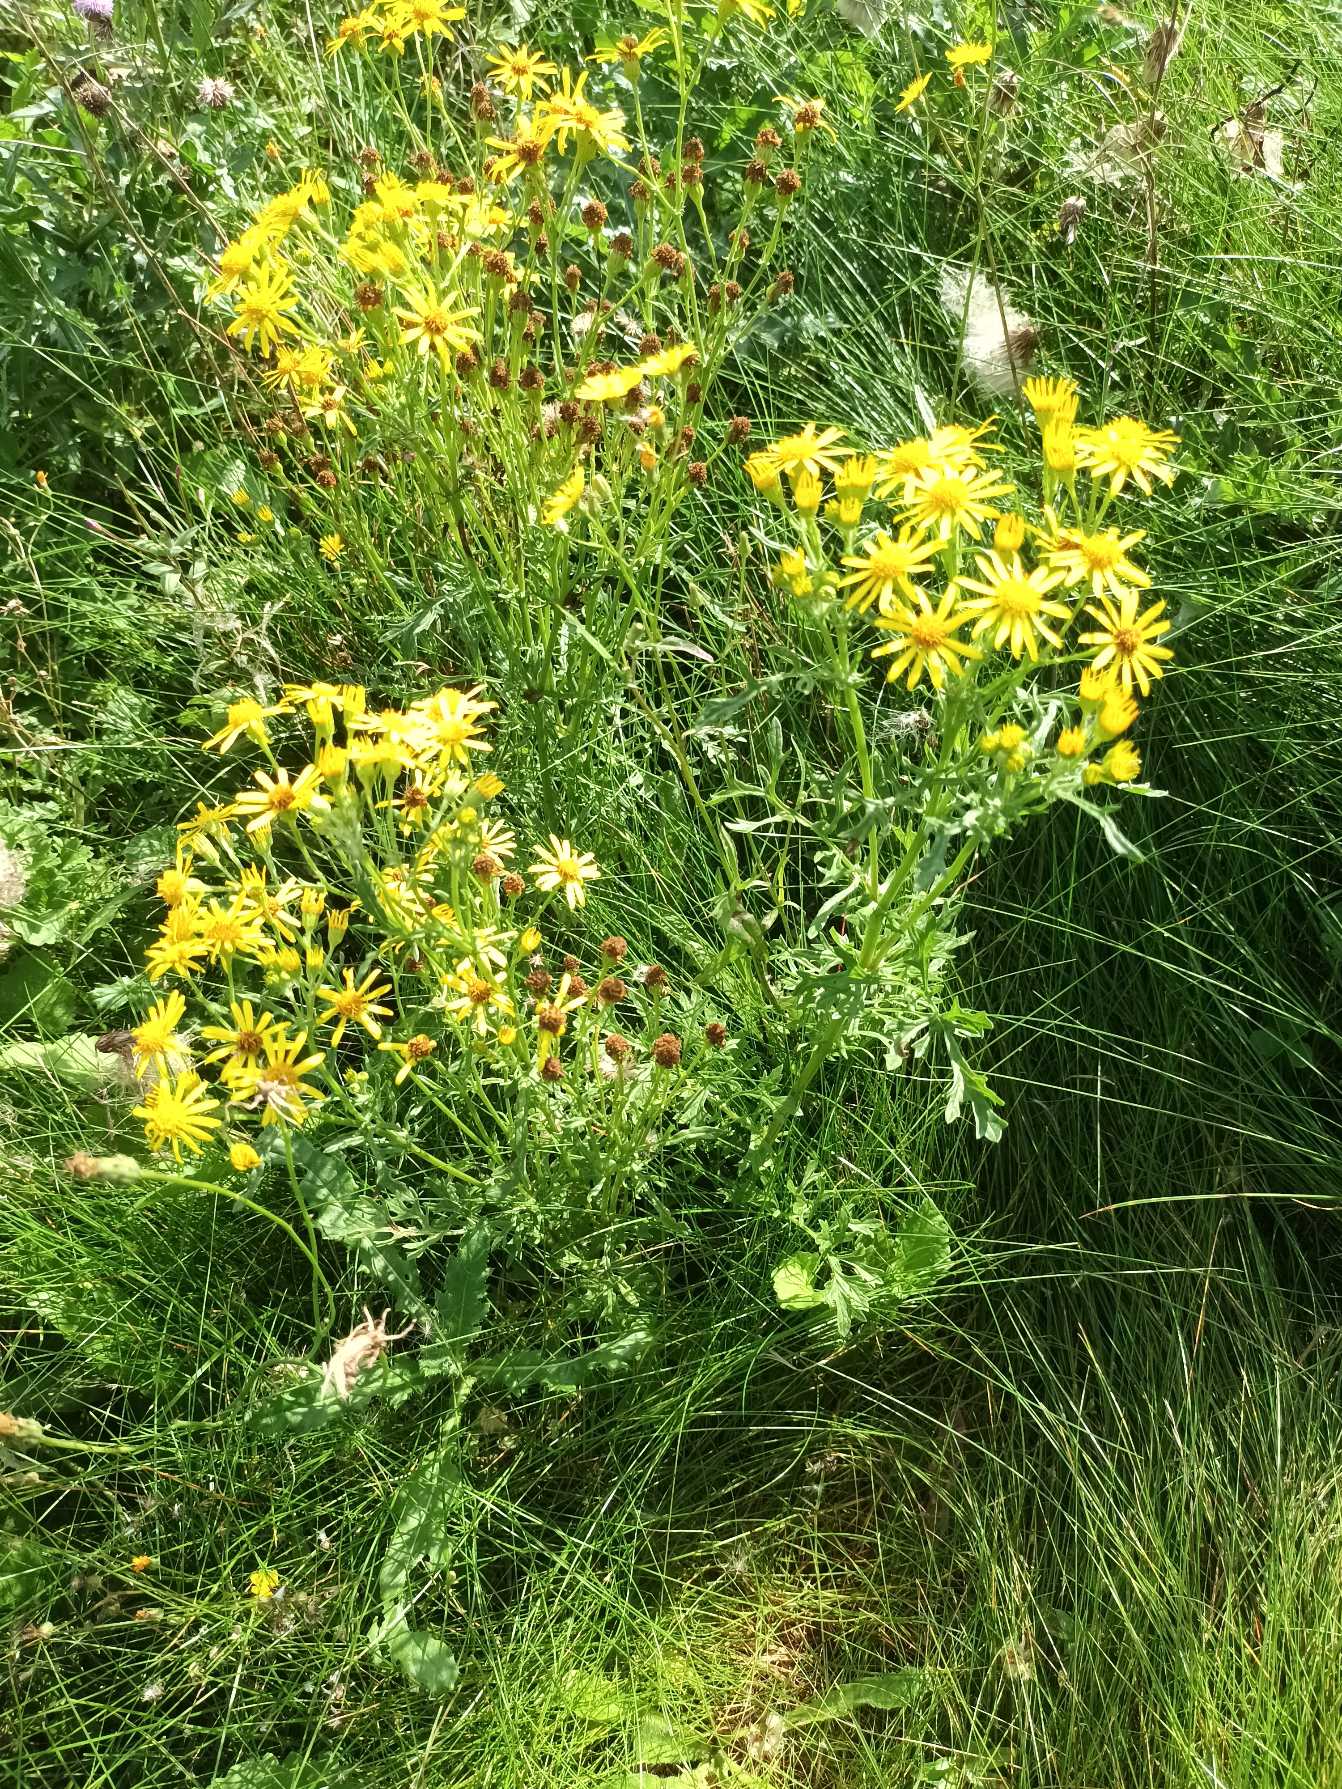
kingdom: Plantae
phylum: Tracheophyta
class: Magnoliopsida
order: Asterales
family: Asteraceae
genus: Jacobaea
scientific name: Jacobaea vulgaris
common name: Eng-brandbæger
